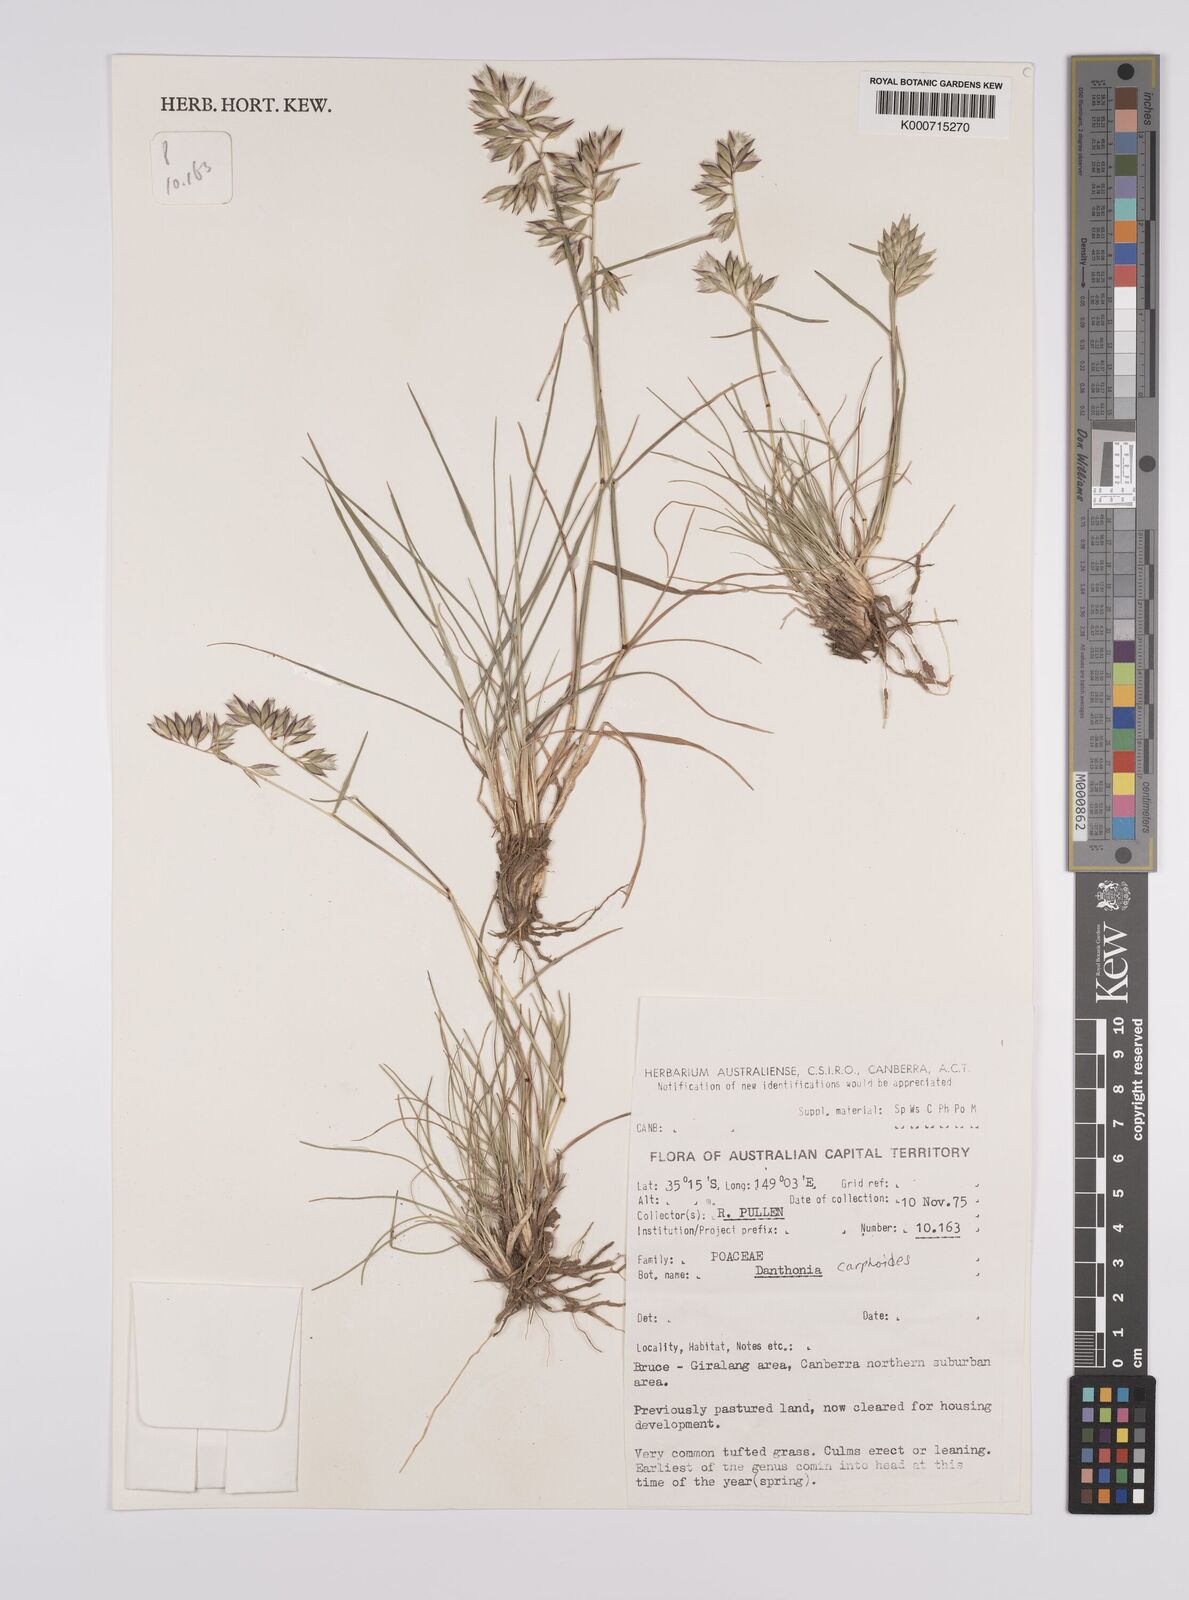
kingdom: Plantae
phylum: Tracheophyta
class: Liliopsida
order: Poales
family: Poaceae
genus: Rytidosperma
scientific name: Rytidosperma carphoides
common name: Short wallaby grass
